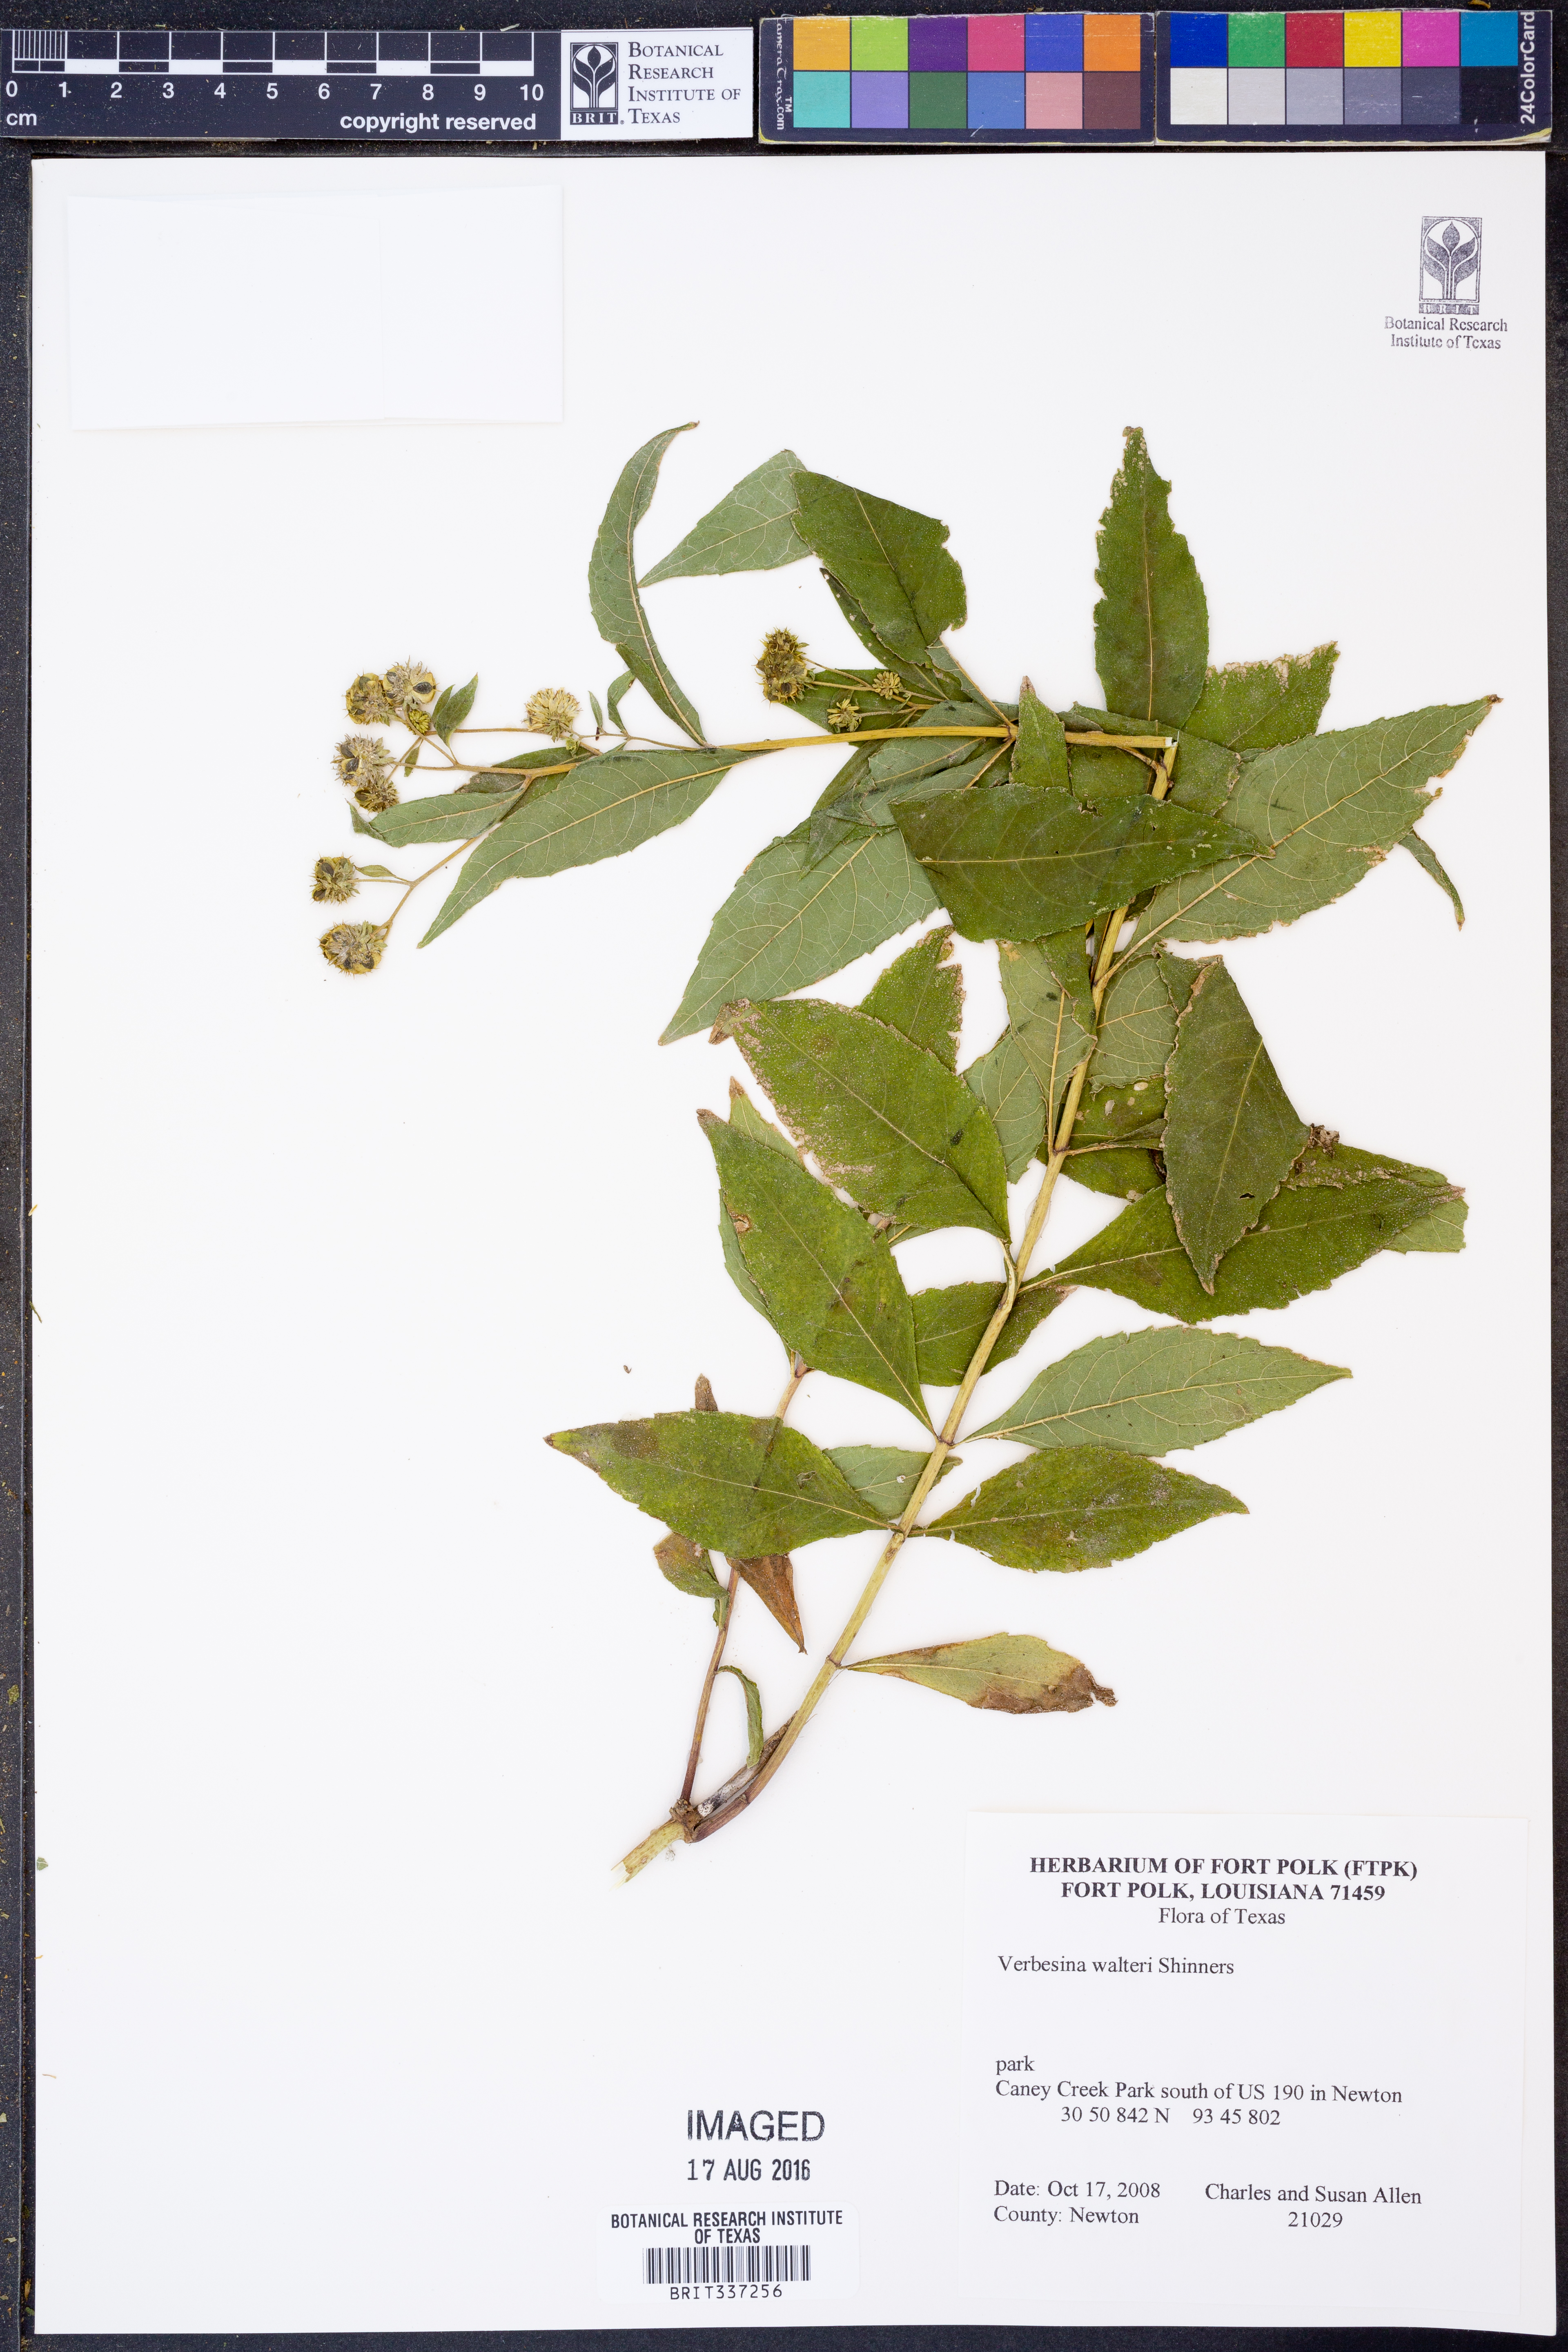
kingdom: Plantae
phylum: Tracheophyta
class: Magnoliopsida
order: Asterales
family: Asteraceae
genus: Verbesina
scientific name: Verbesina walteri
